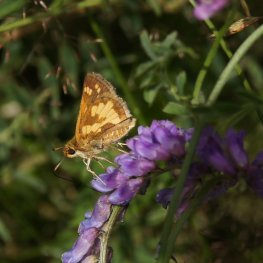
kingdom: Animalia
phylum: Arthropoda
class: Insecta
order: Lepidoptera
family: Hesperiidae
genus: Polites
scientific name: Polites coras
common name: Peck's Skipper
